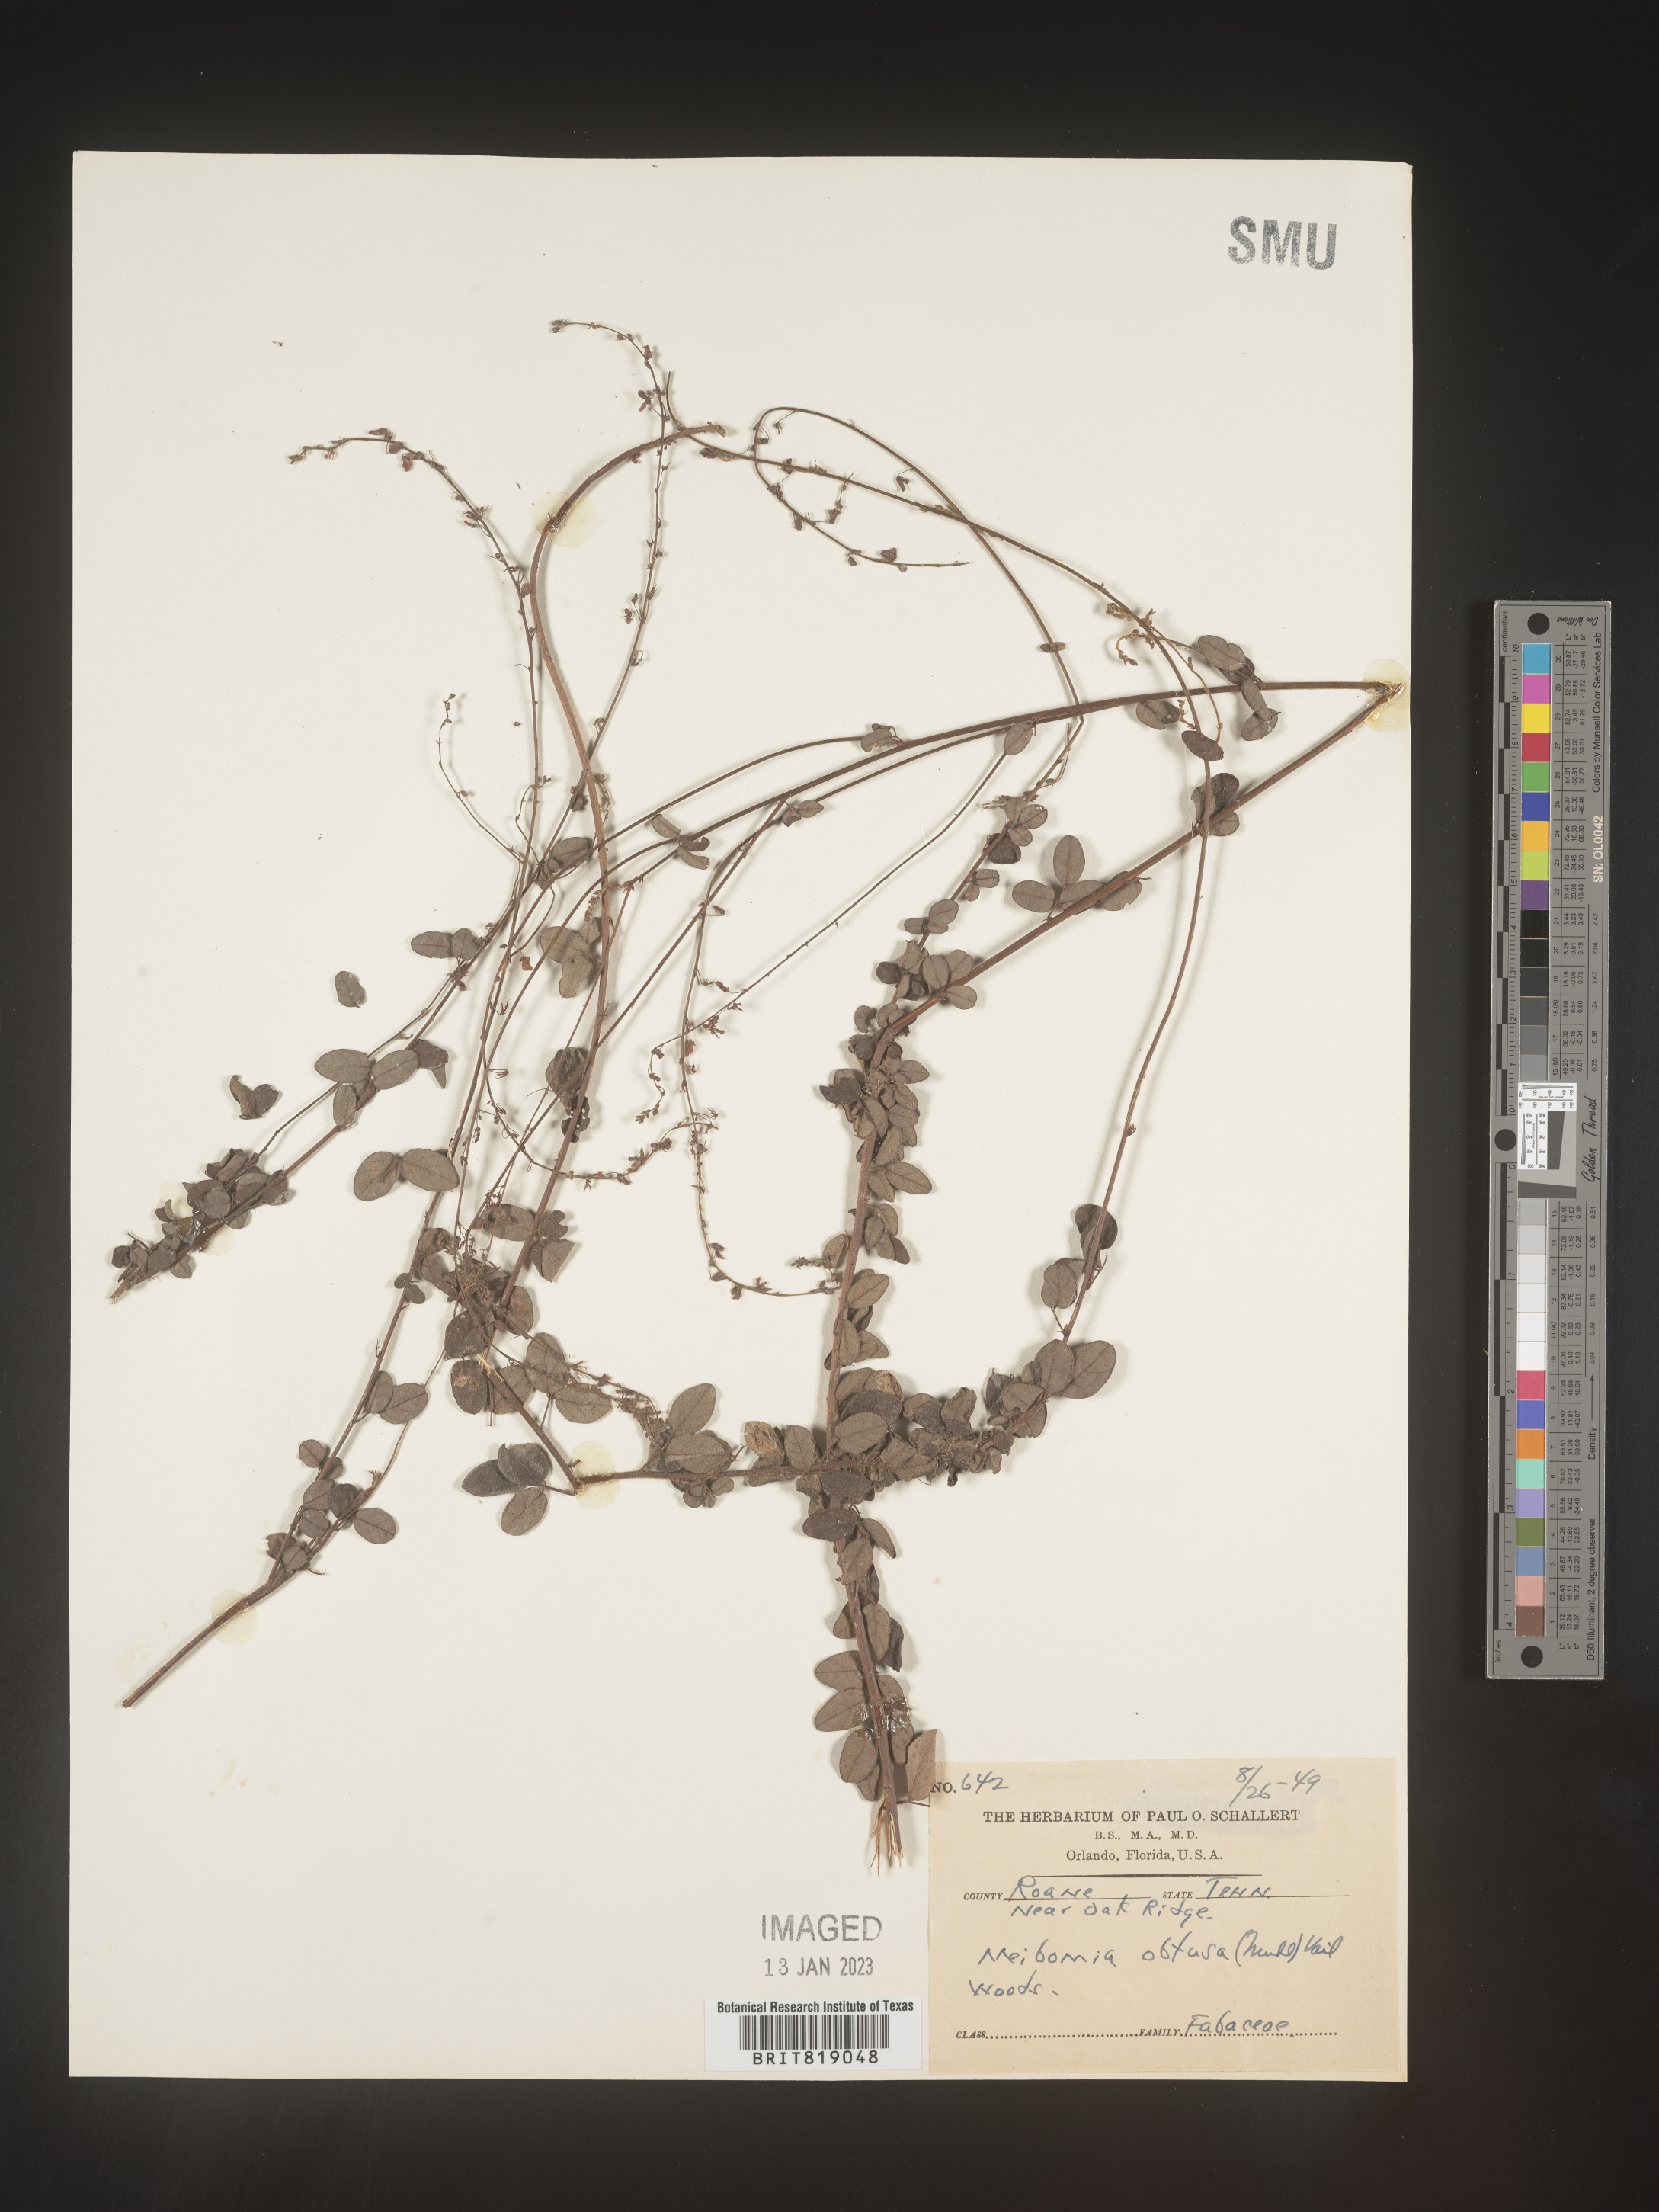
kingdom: Plantae
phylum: Tracheophyta
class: Magnoliopsida
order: Fabales
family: Fabaceae
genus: Desmodium
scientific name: Desmodium obtusum
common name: Stiff tick trefoil
